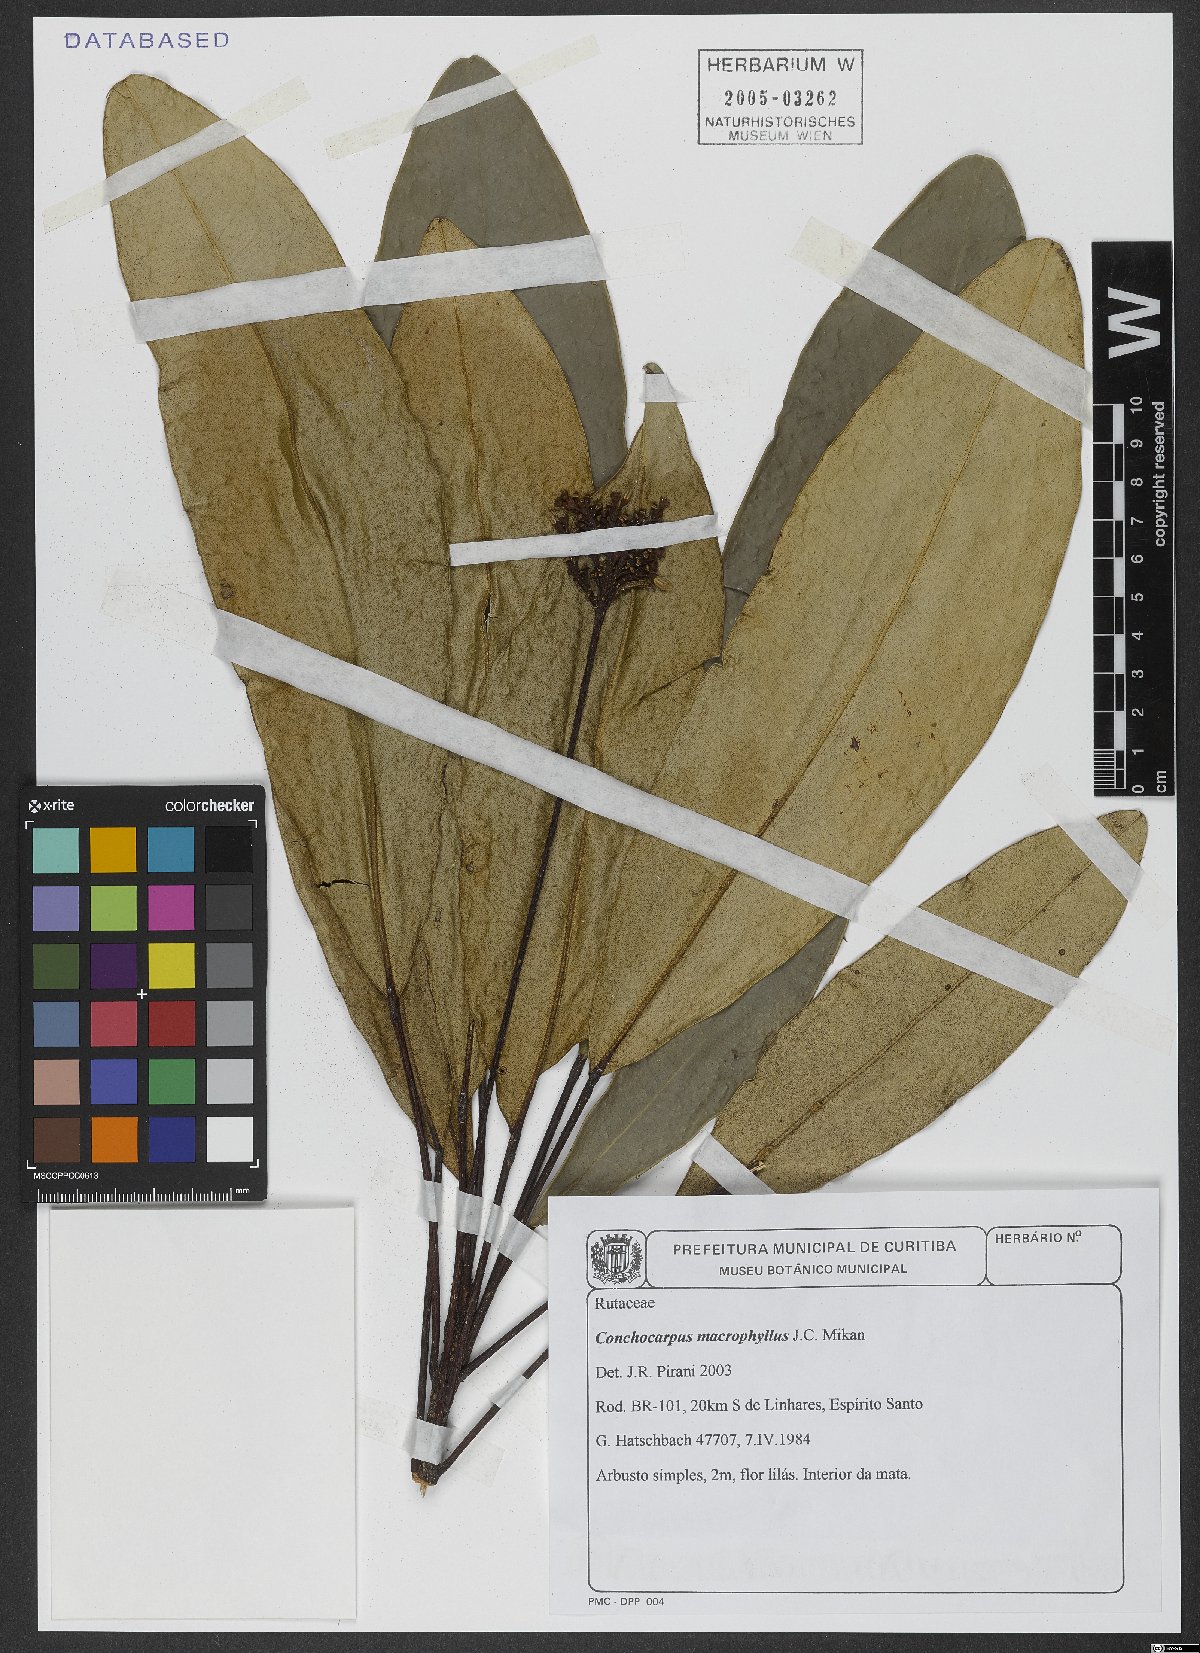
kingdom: Plantae
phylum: Tracheophyta
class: Magnoliopsida
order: Sapindales
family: Rutaceae
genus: Conchocarpus
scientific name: Conchocarpus macrophyllus
